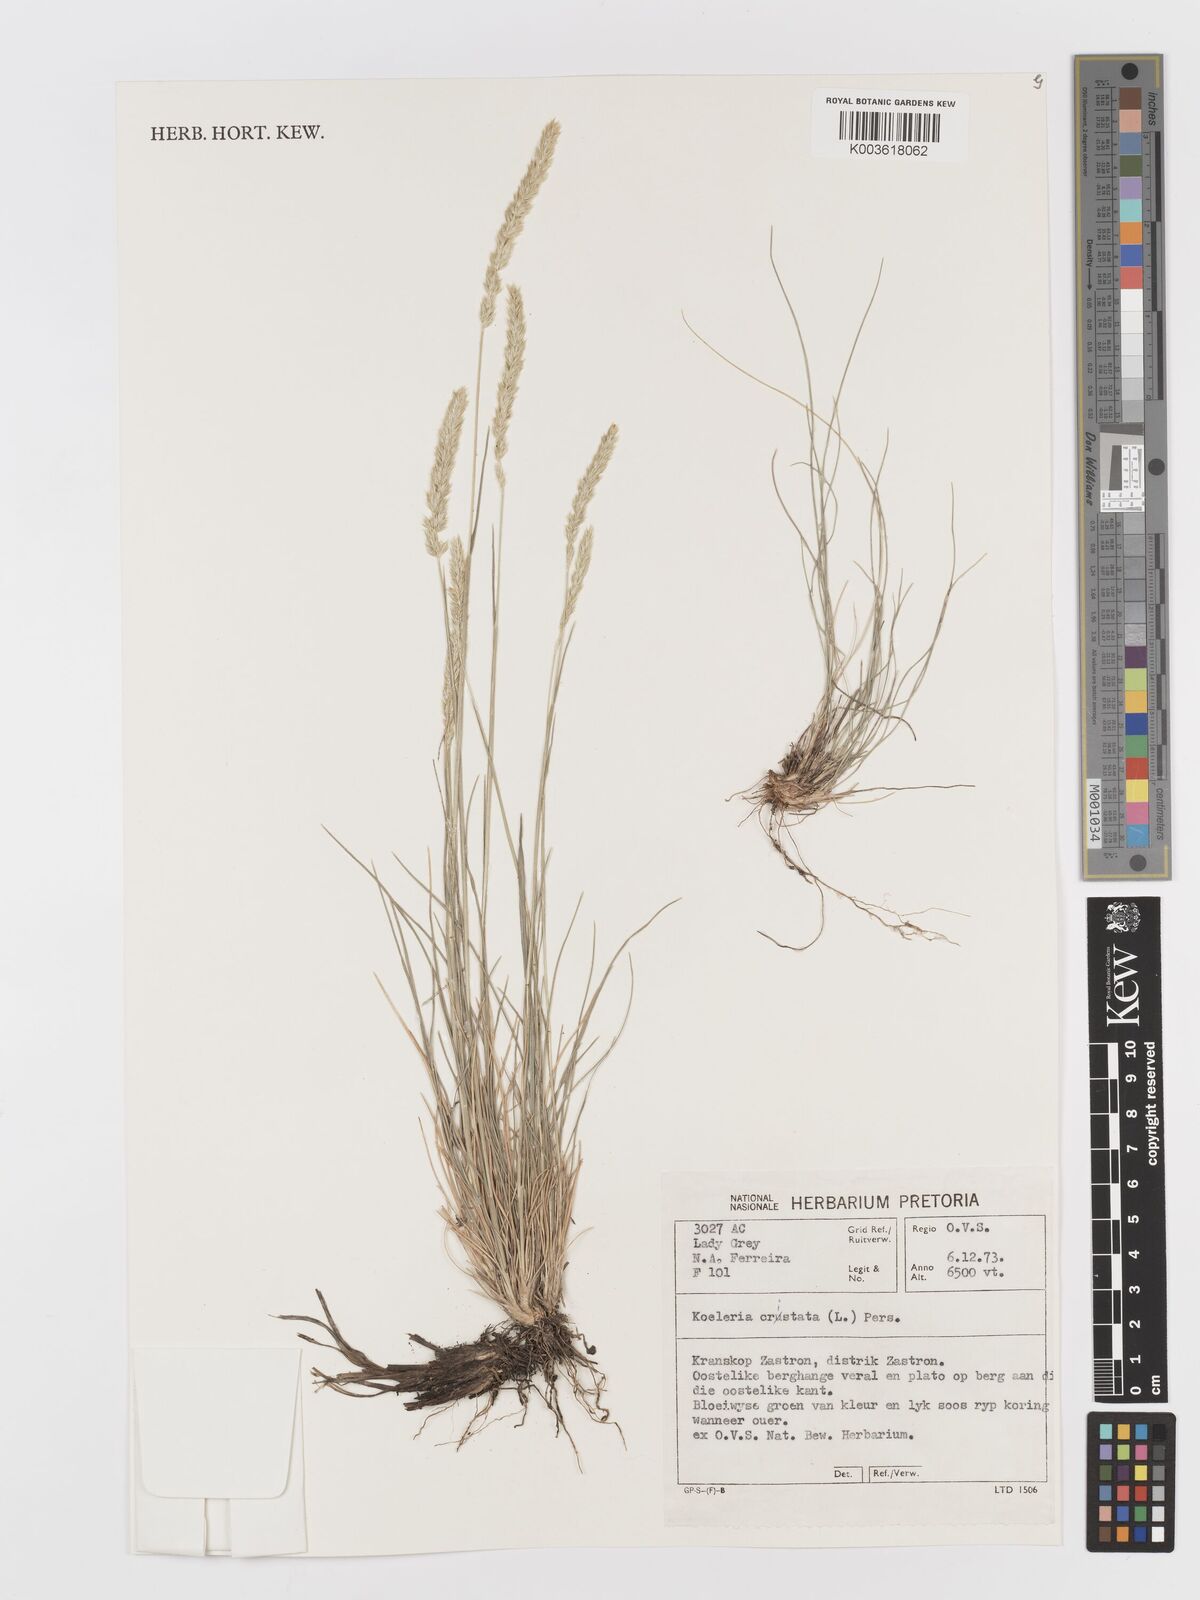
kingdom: Plantae
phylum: Tracheophyta
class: Liliopsida
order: Poales
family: Poaceae
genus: Koeleria
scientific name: Koeleria capensis
